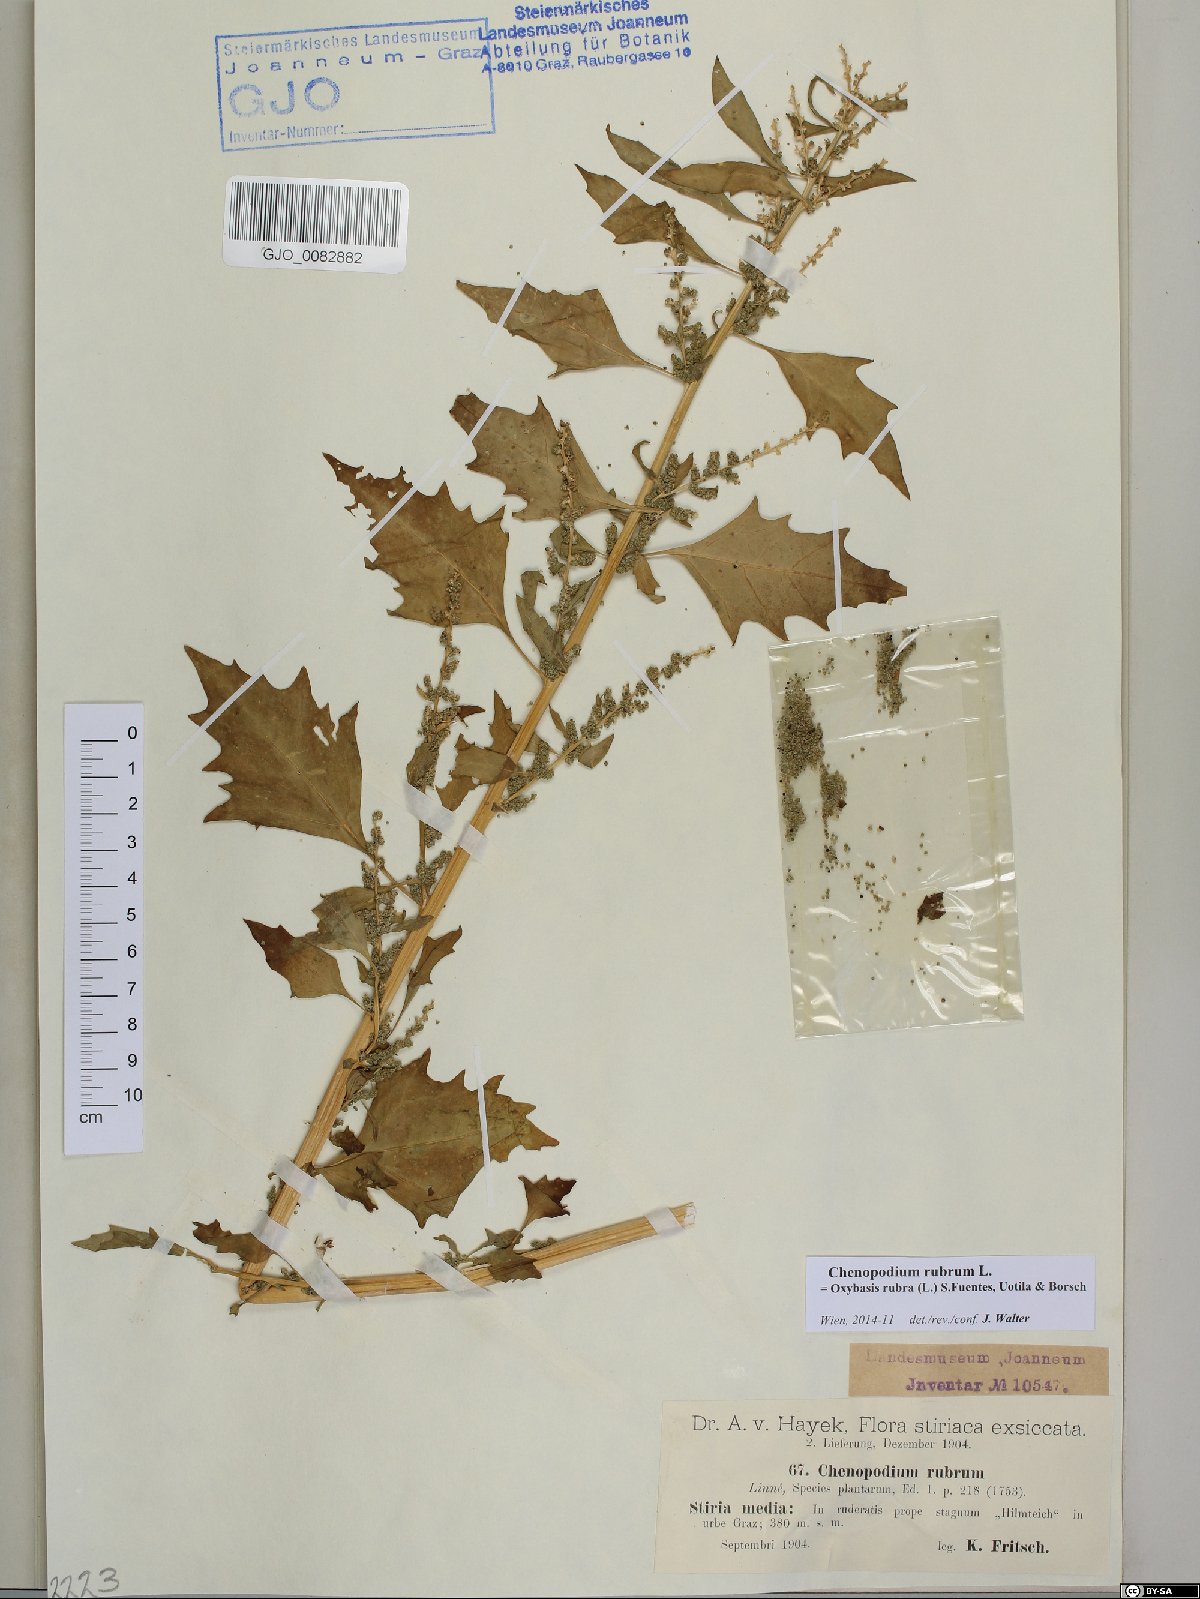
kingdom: Plantae
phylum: Tracheophyta
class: Magnoliopsida
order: Caryophyllales
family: Amaranthaceae
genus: Oxybasis
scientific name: Oxybasis rubra
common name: Red goosefoot
